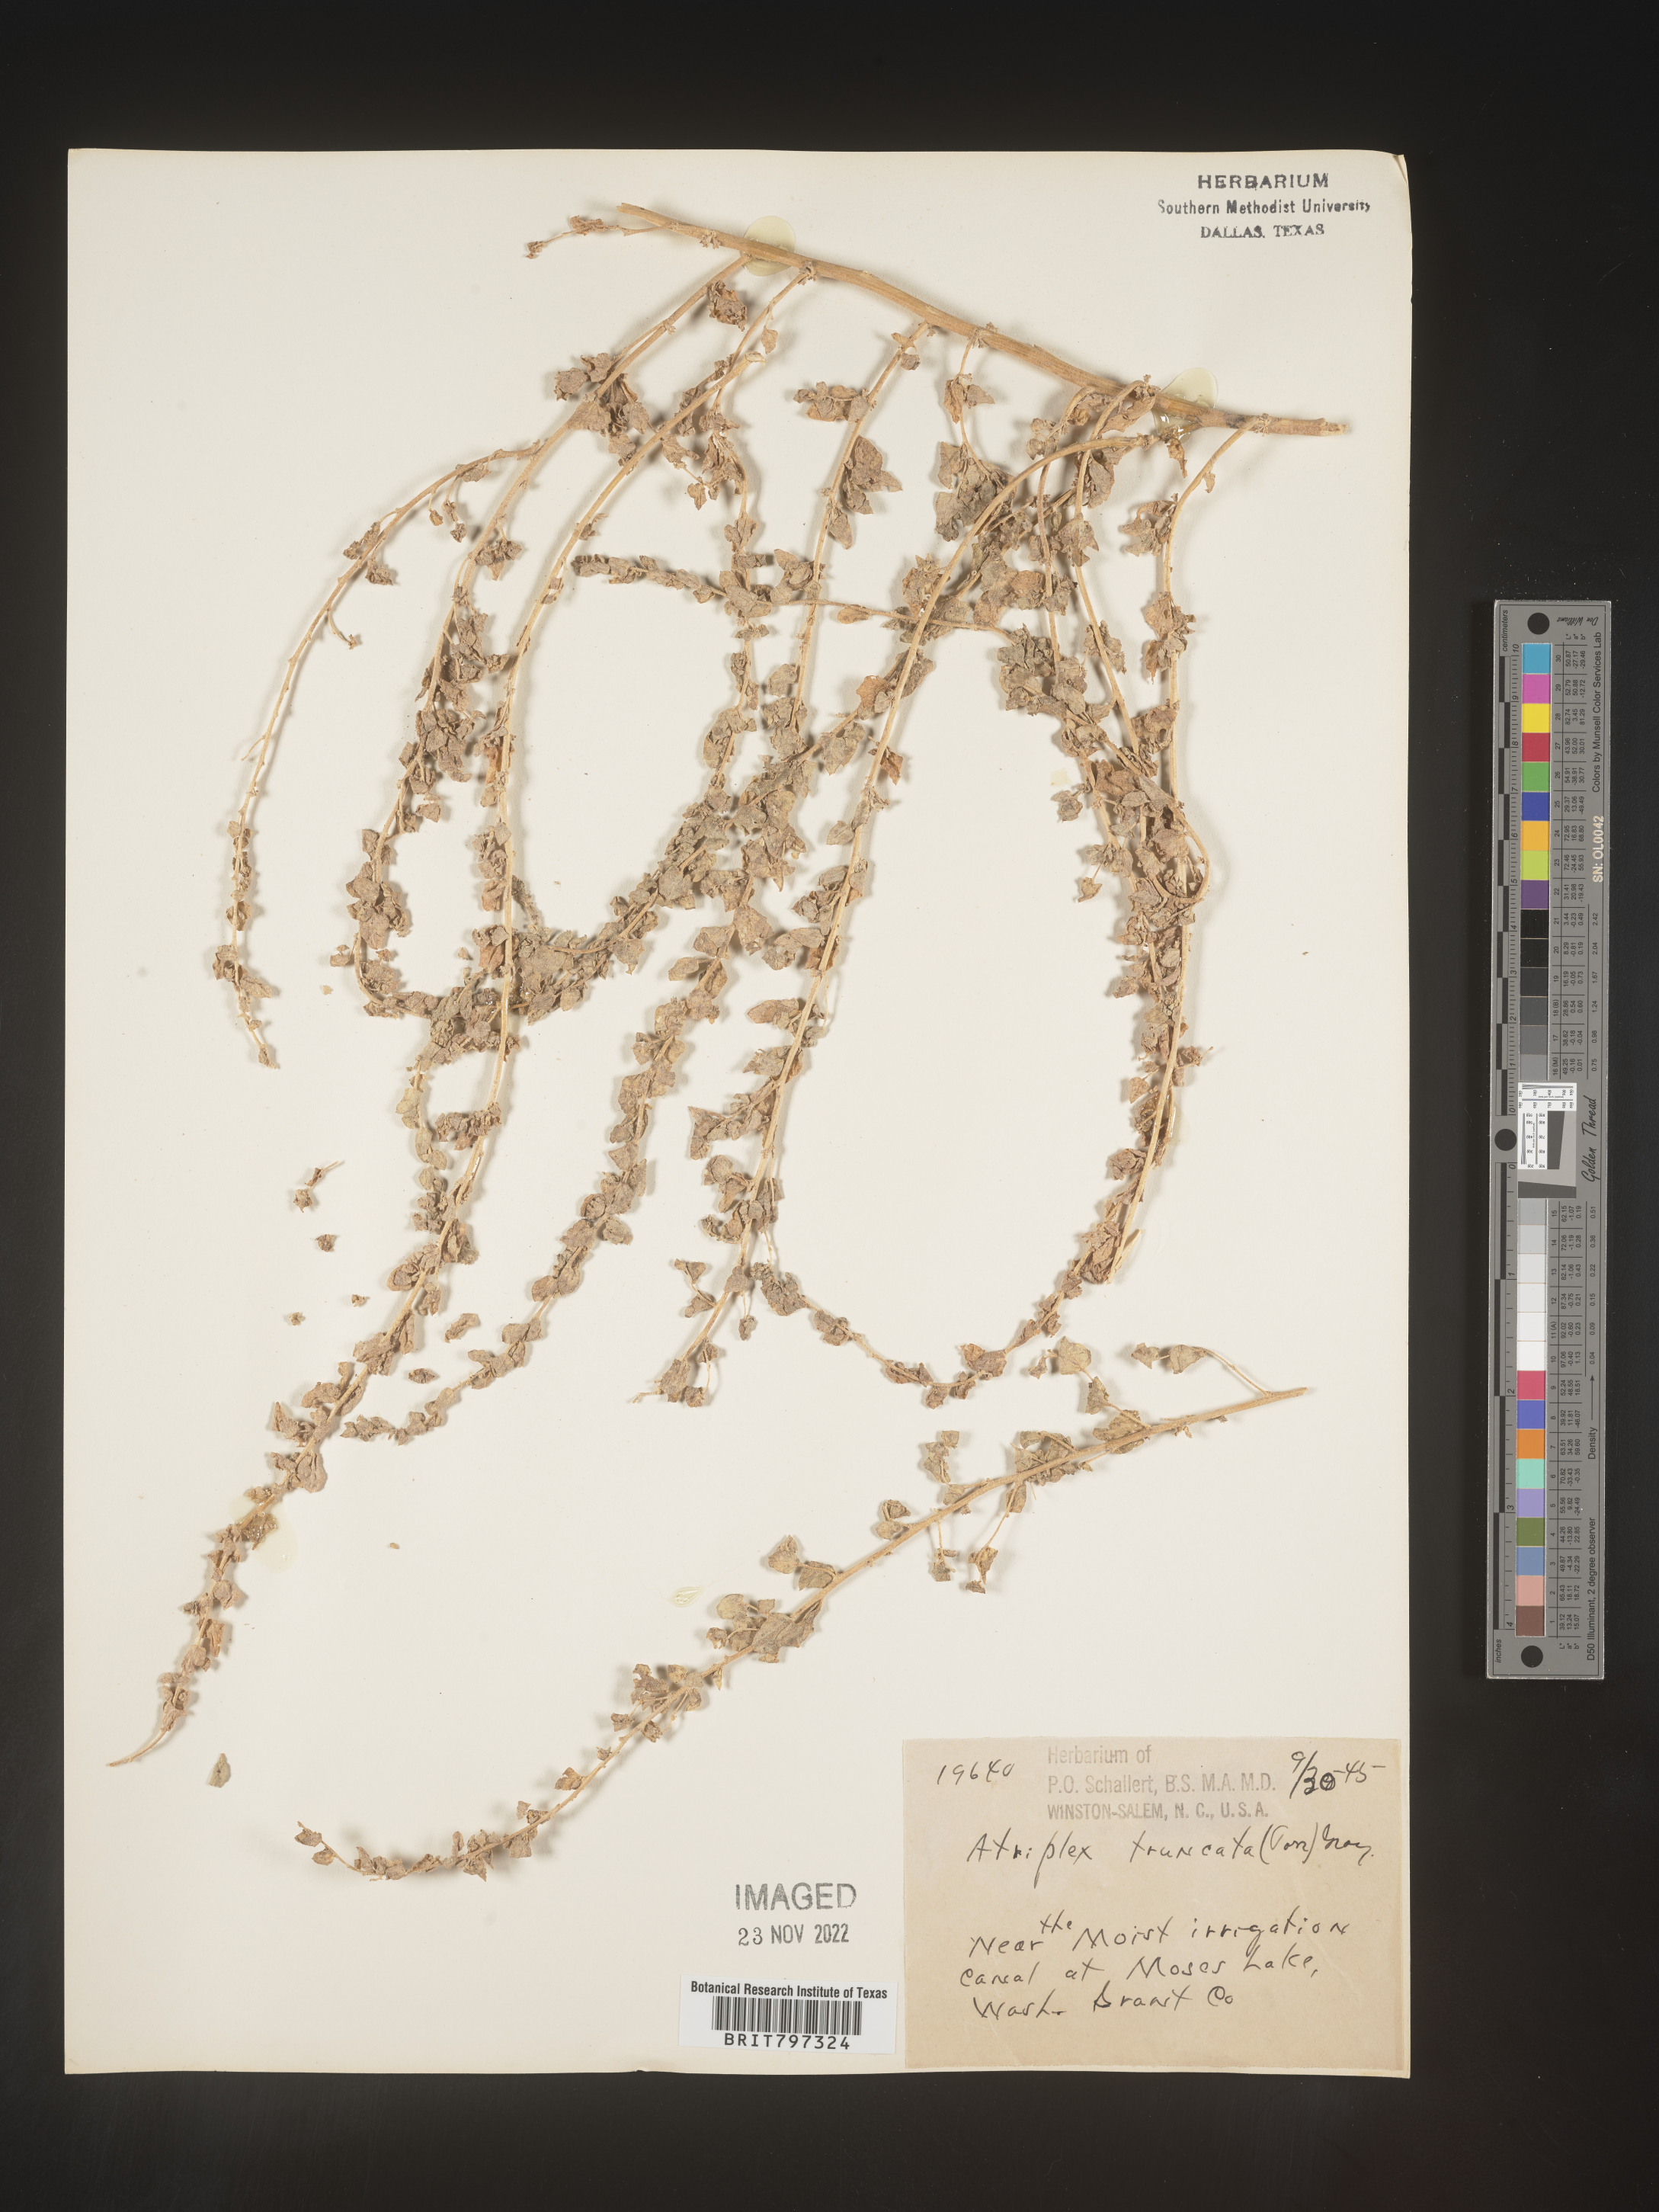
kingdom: Plantae
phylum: Tracheophyta
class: Magnoliopsida
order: Caryophyllales
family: Amaranthaceae
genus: Atriplex
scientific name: Atriplex
